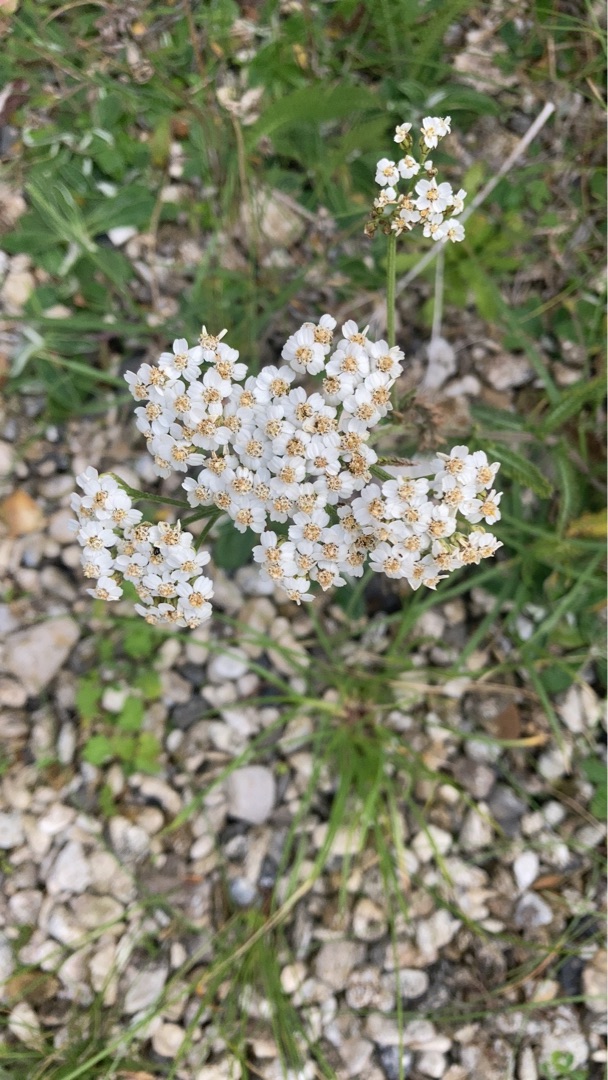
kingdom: Plantae
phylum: Tracheophyta
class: Magnoliopsida
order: Asterales
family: Asteraceae
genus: Achillea
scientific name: Achillea millefolium
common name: Almindelig røllike
